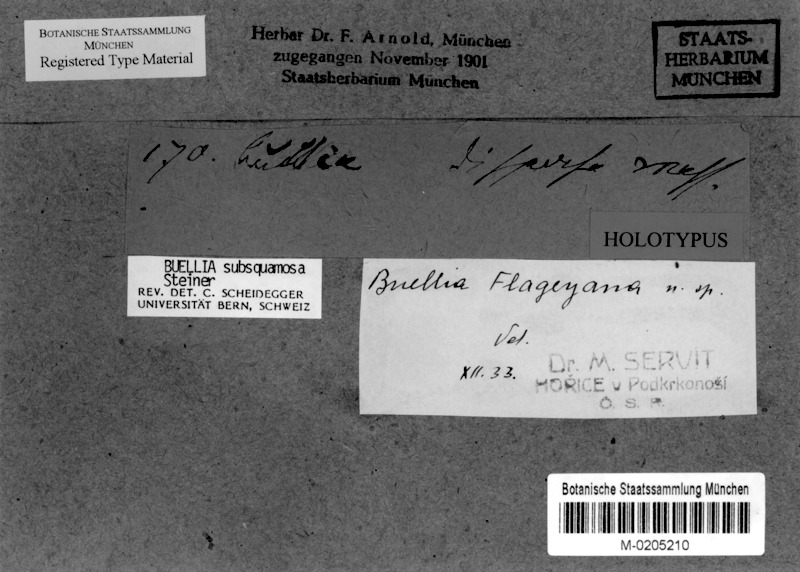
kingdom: Fungi
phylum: Ascomycota
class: Lecanoromycetes
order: Caliciales
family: Caliciaceae
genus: Buellia
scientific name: Buellia
